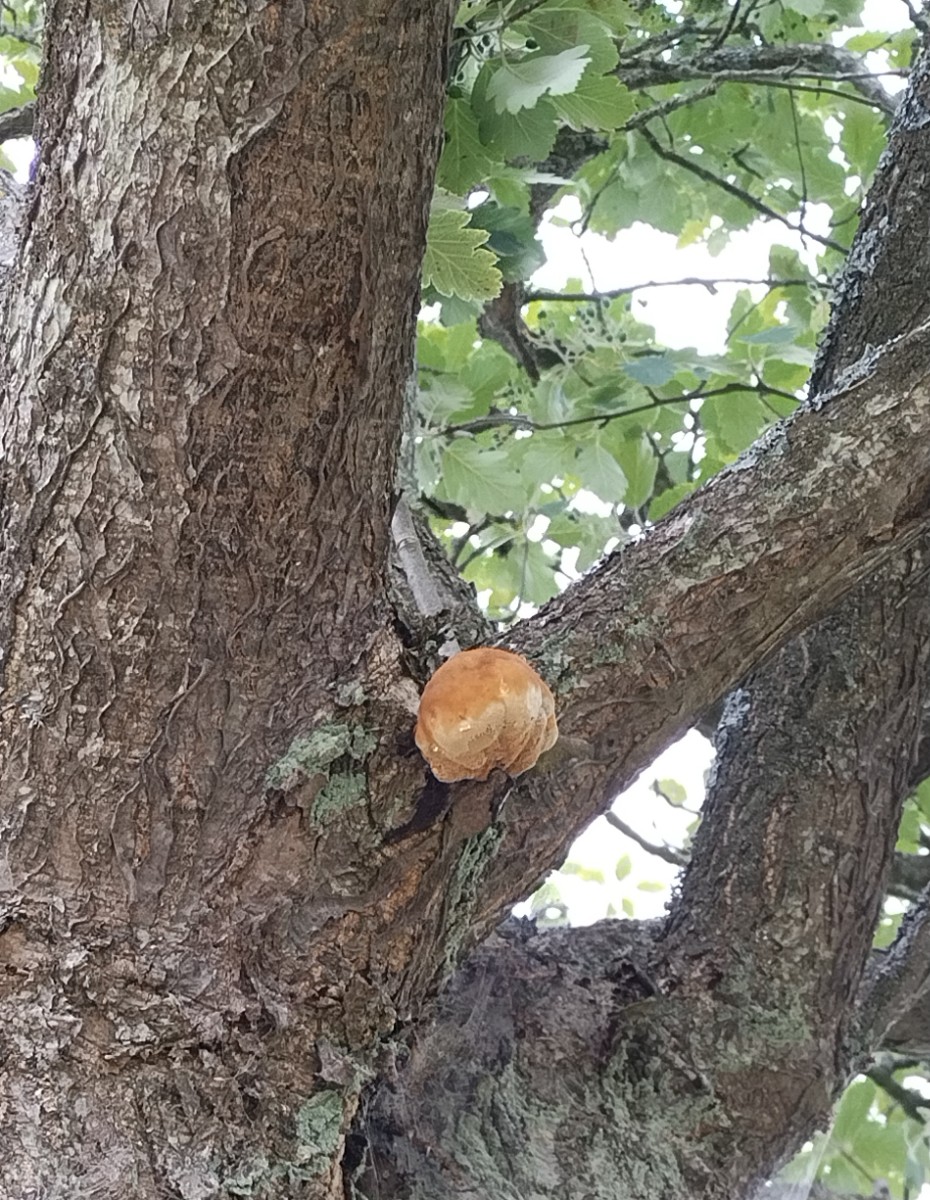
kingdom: Fungi
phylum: Basidiomycota
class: Agaricomycetes
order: Hymenochaetales
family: Hymenochaetaceae
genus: Inonotus
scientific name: Inonotus hispidus
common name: børstehåret spejlporesvamp
